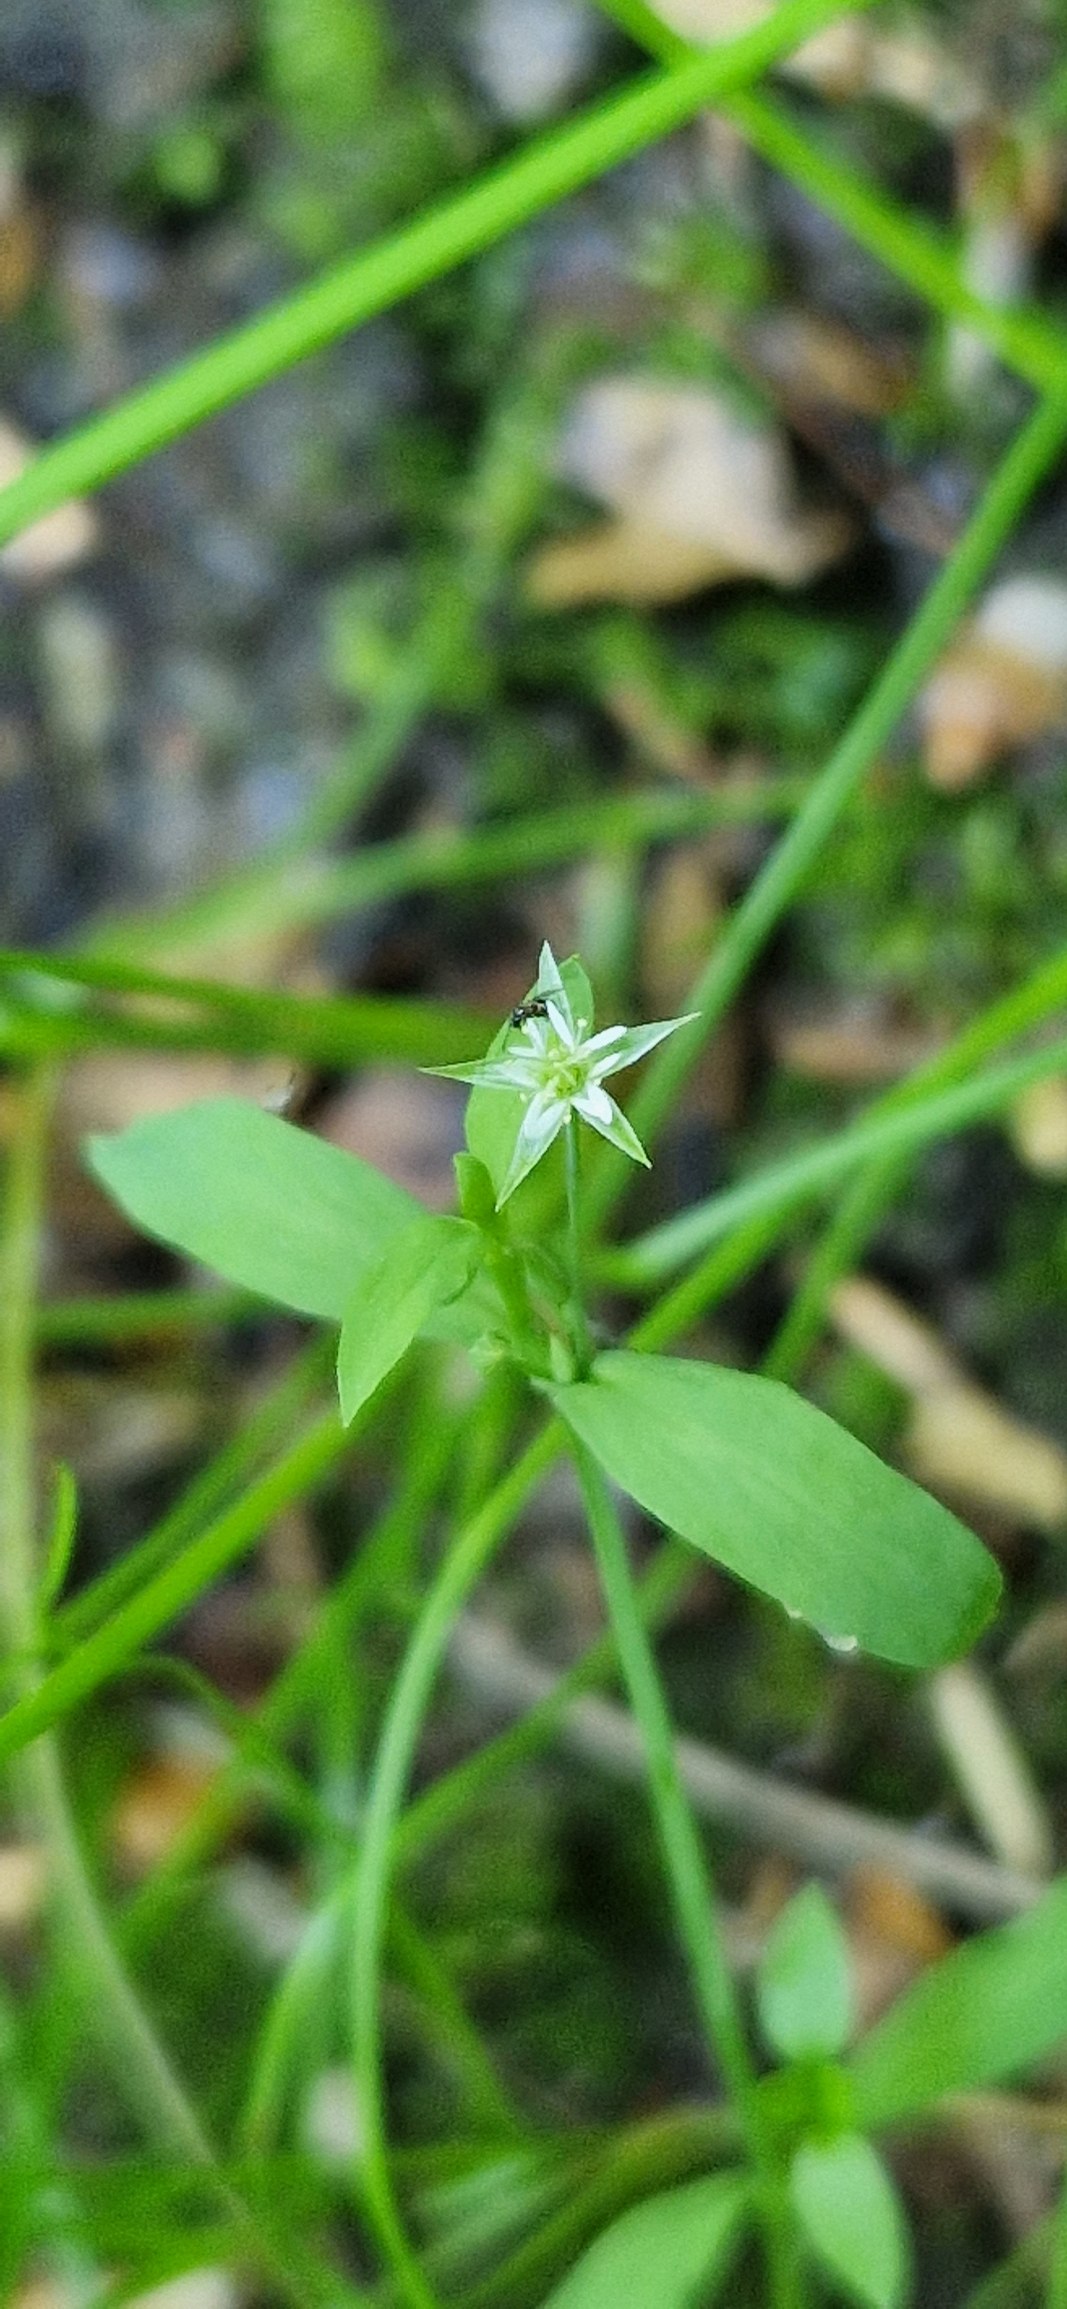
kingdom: Plantae
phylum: Tracheophyta
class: Magnoliopsida
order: Caryophyllales
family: Caryophyllaceae
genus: Stellaria
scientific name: Stellaria alsine
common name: Sump-fladstjerne
